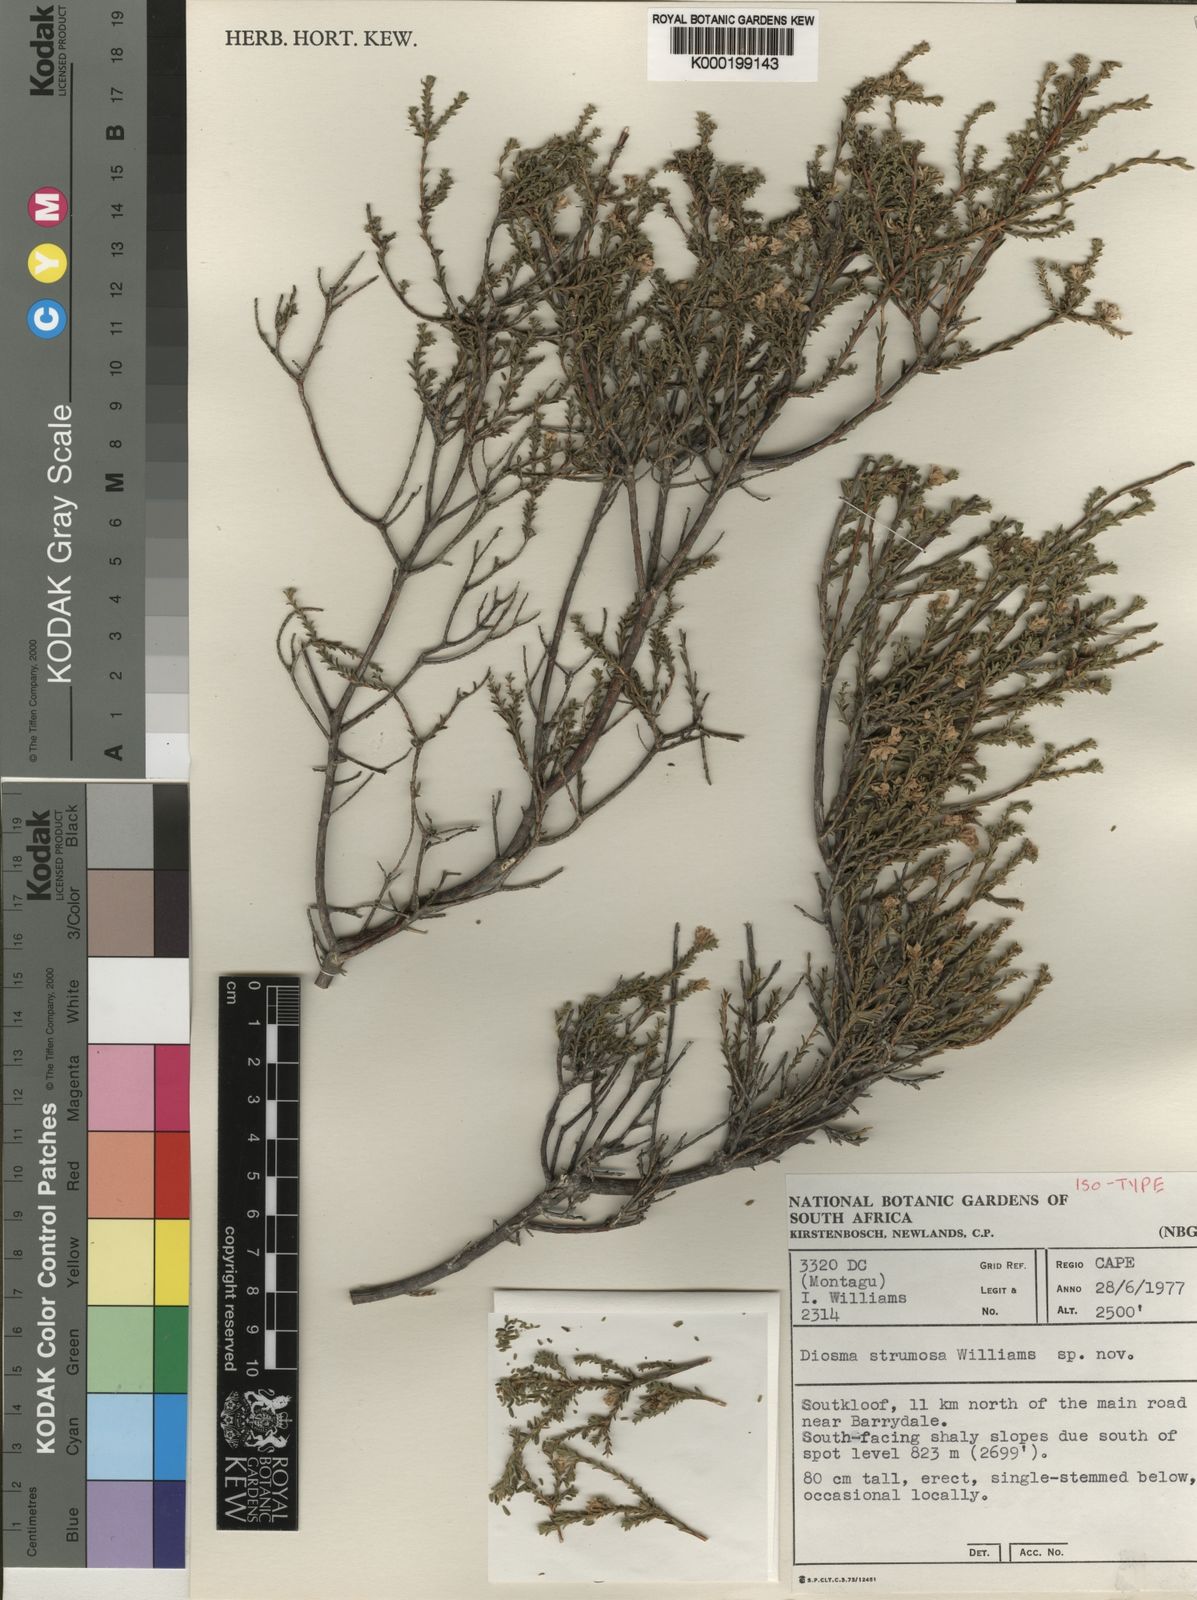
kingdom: Plantae
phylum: Tracheophyta
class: Magnoliopsida
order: Sapindales
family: Rutaceae
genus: Diosma
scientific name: Diosma strumosa
